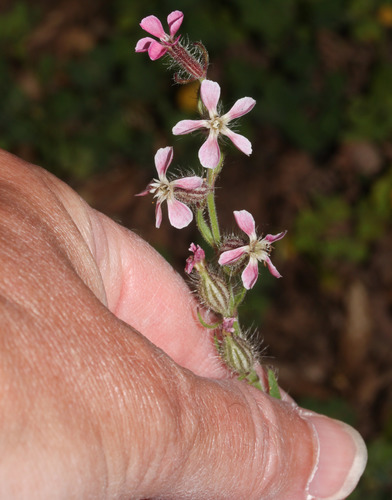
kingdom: Plantae
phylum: Tracheophyta
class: Magnoliopsida
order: Caryophyllales
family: Caryophyllaceae
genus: Silene
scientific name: Silene gallica
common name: Small-flowered catchfly
